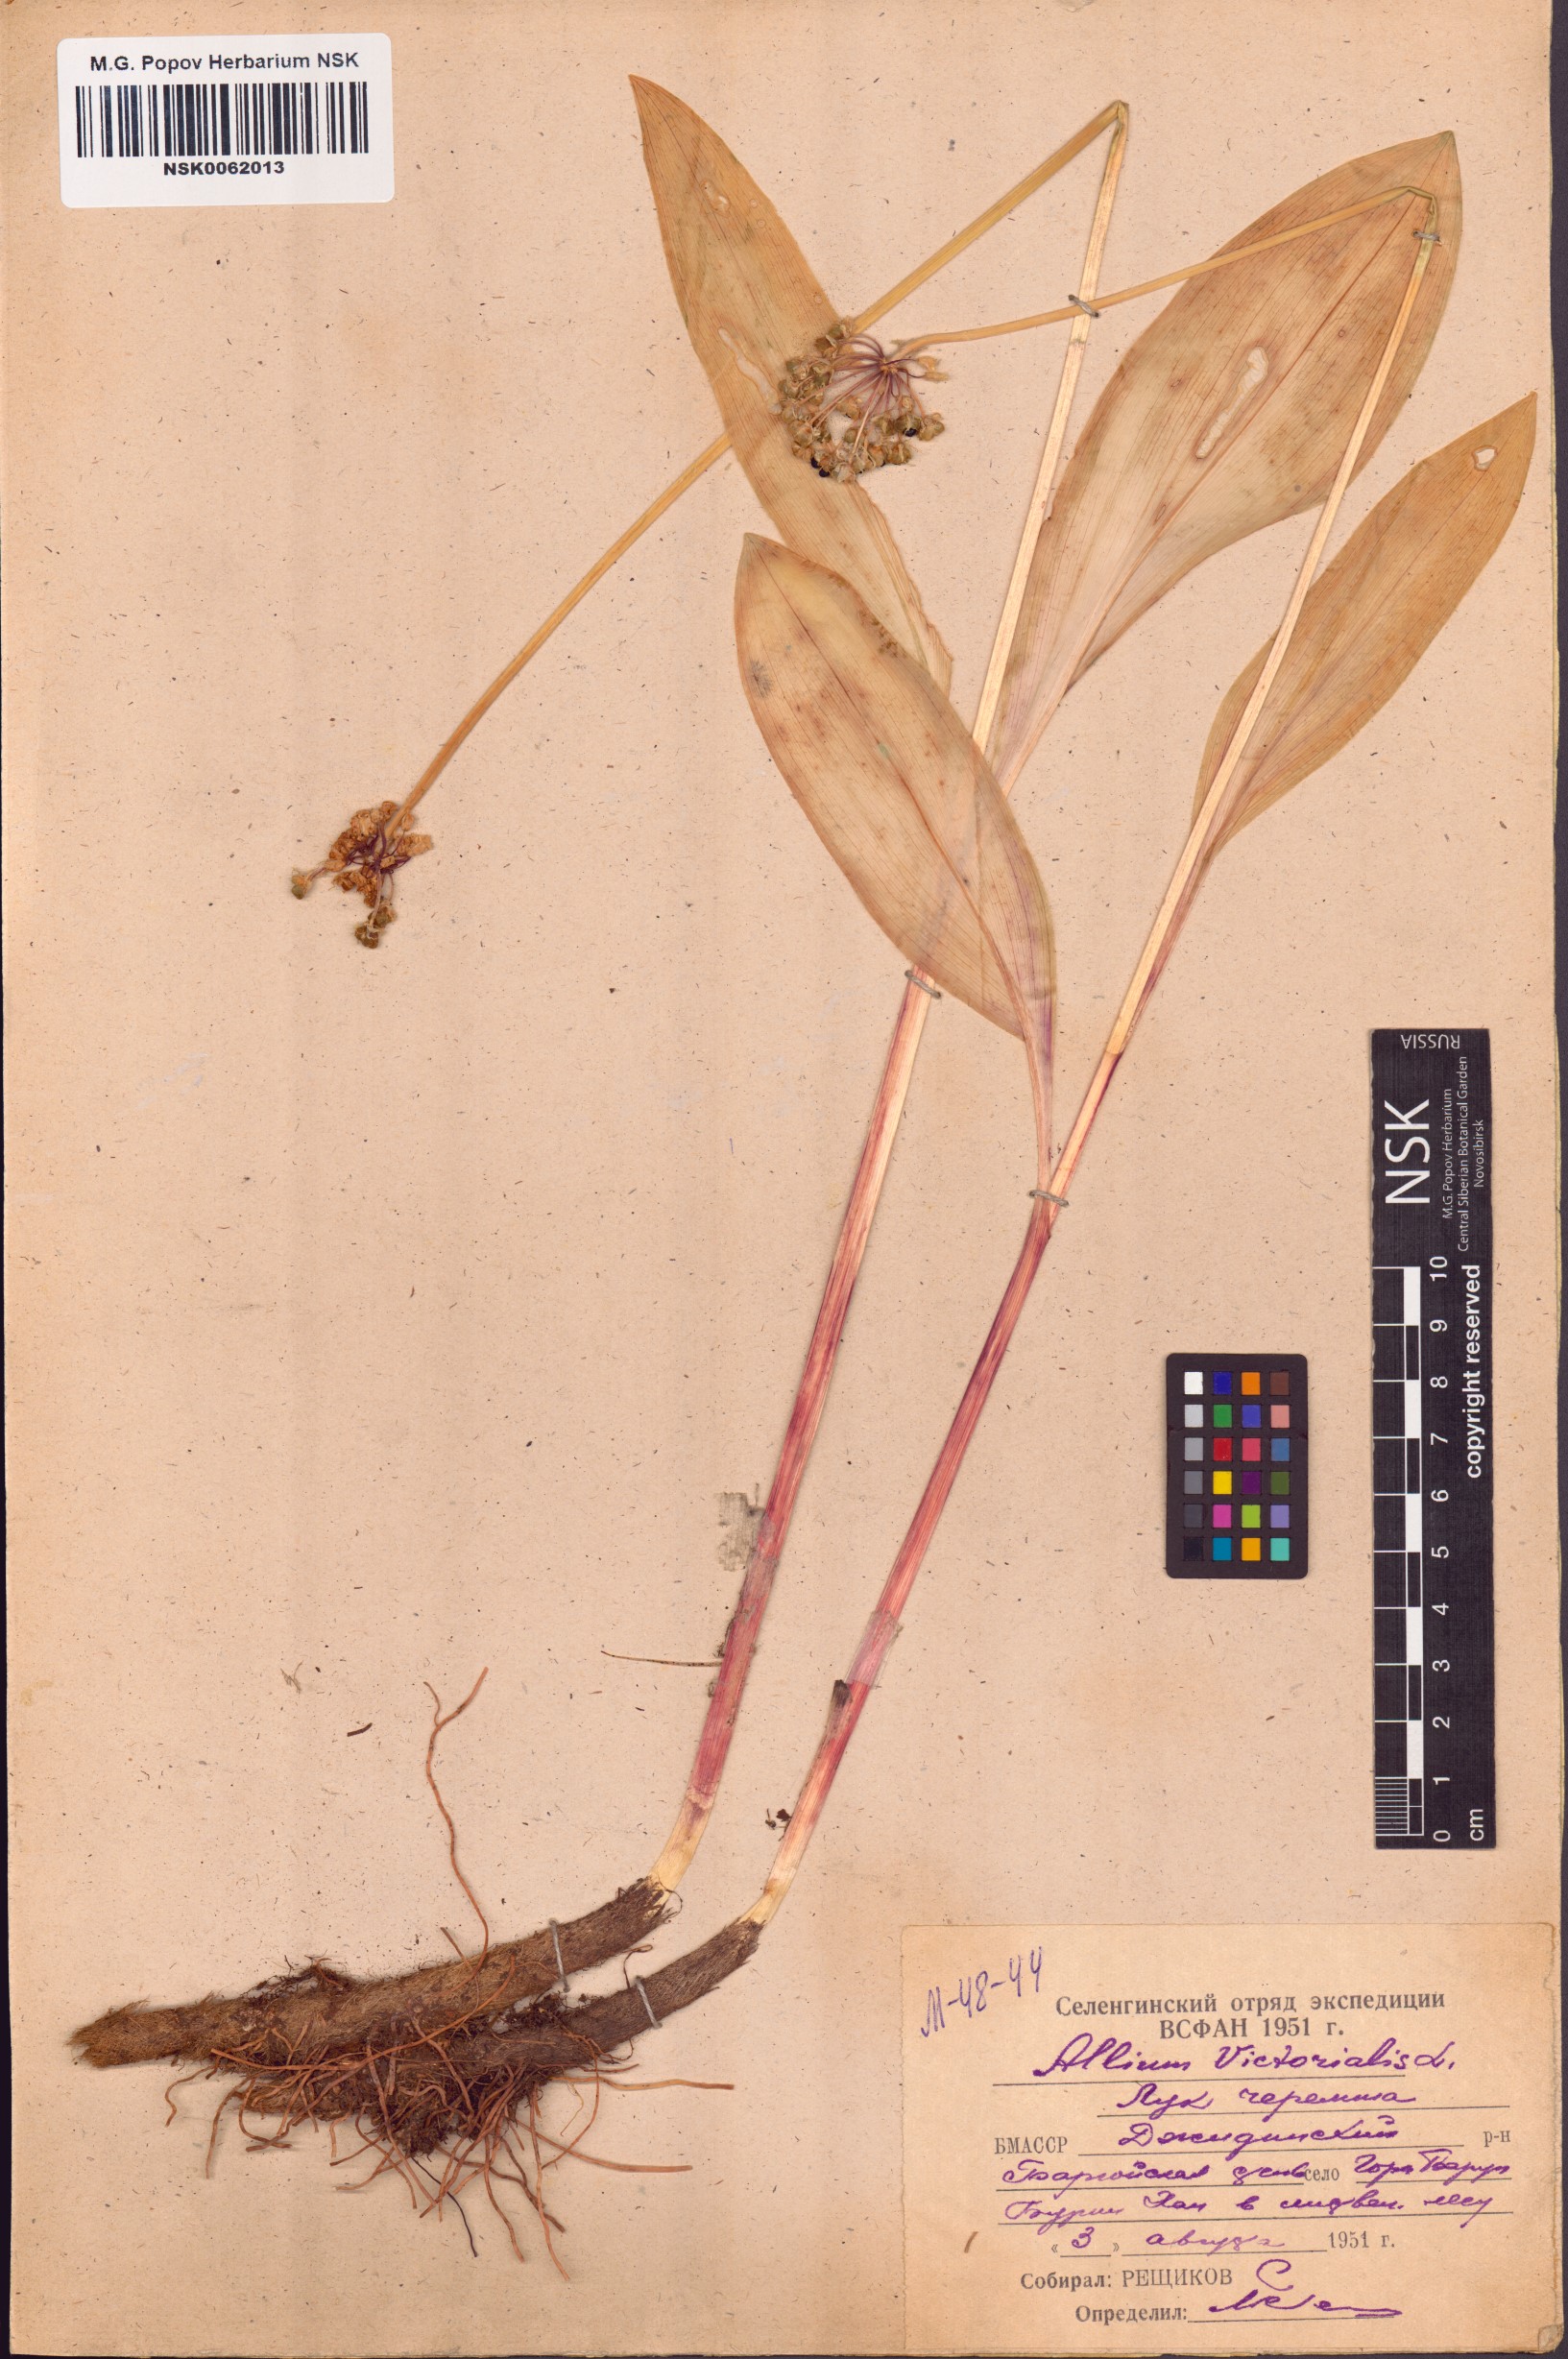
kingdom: Plantae
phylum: Tracheophyta
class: Liliopsida
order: Asparagales
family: Amaryllidaceae
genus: Allium
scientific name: Allium victorialis
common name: Alpine leek
